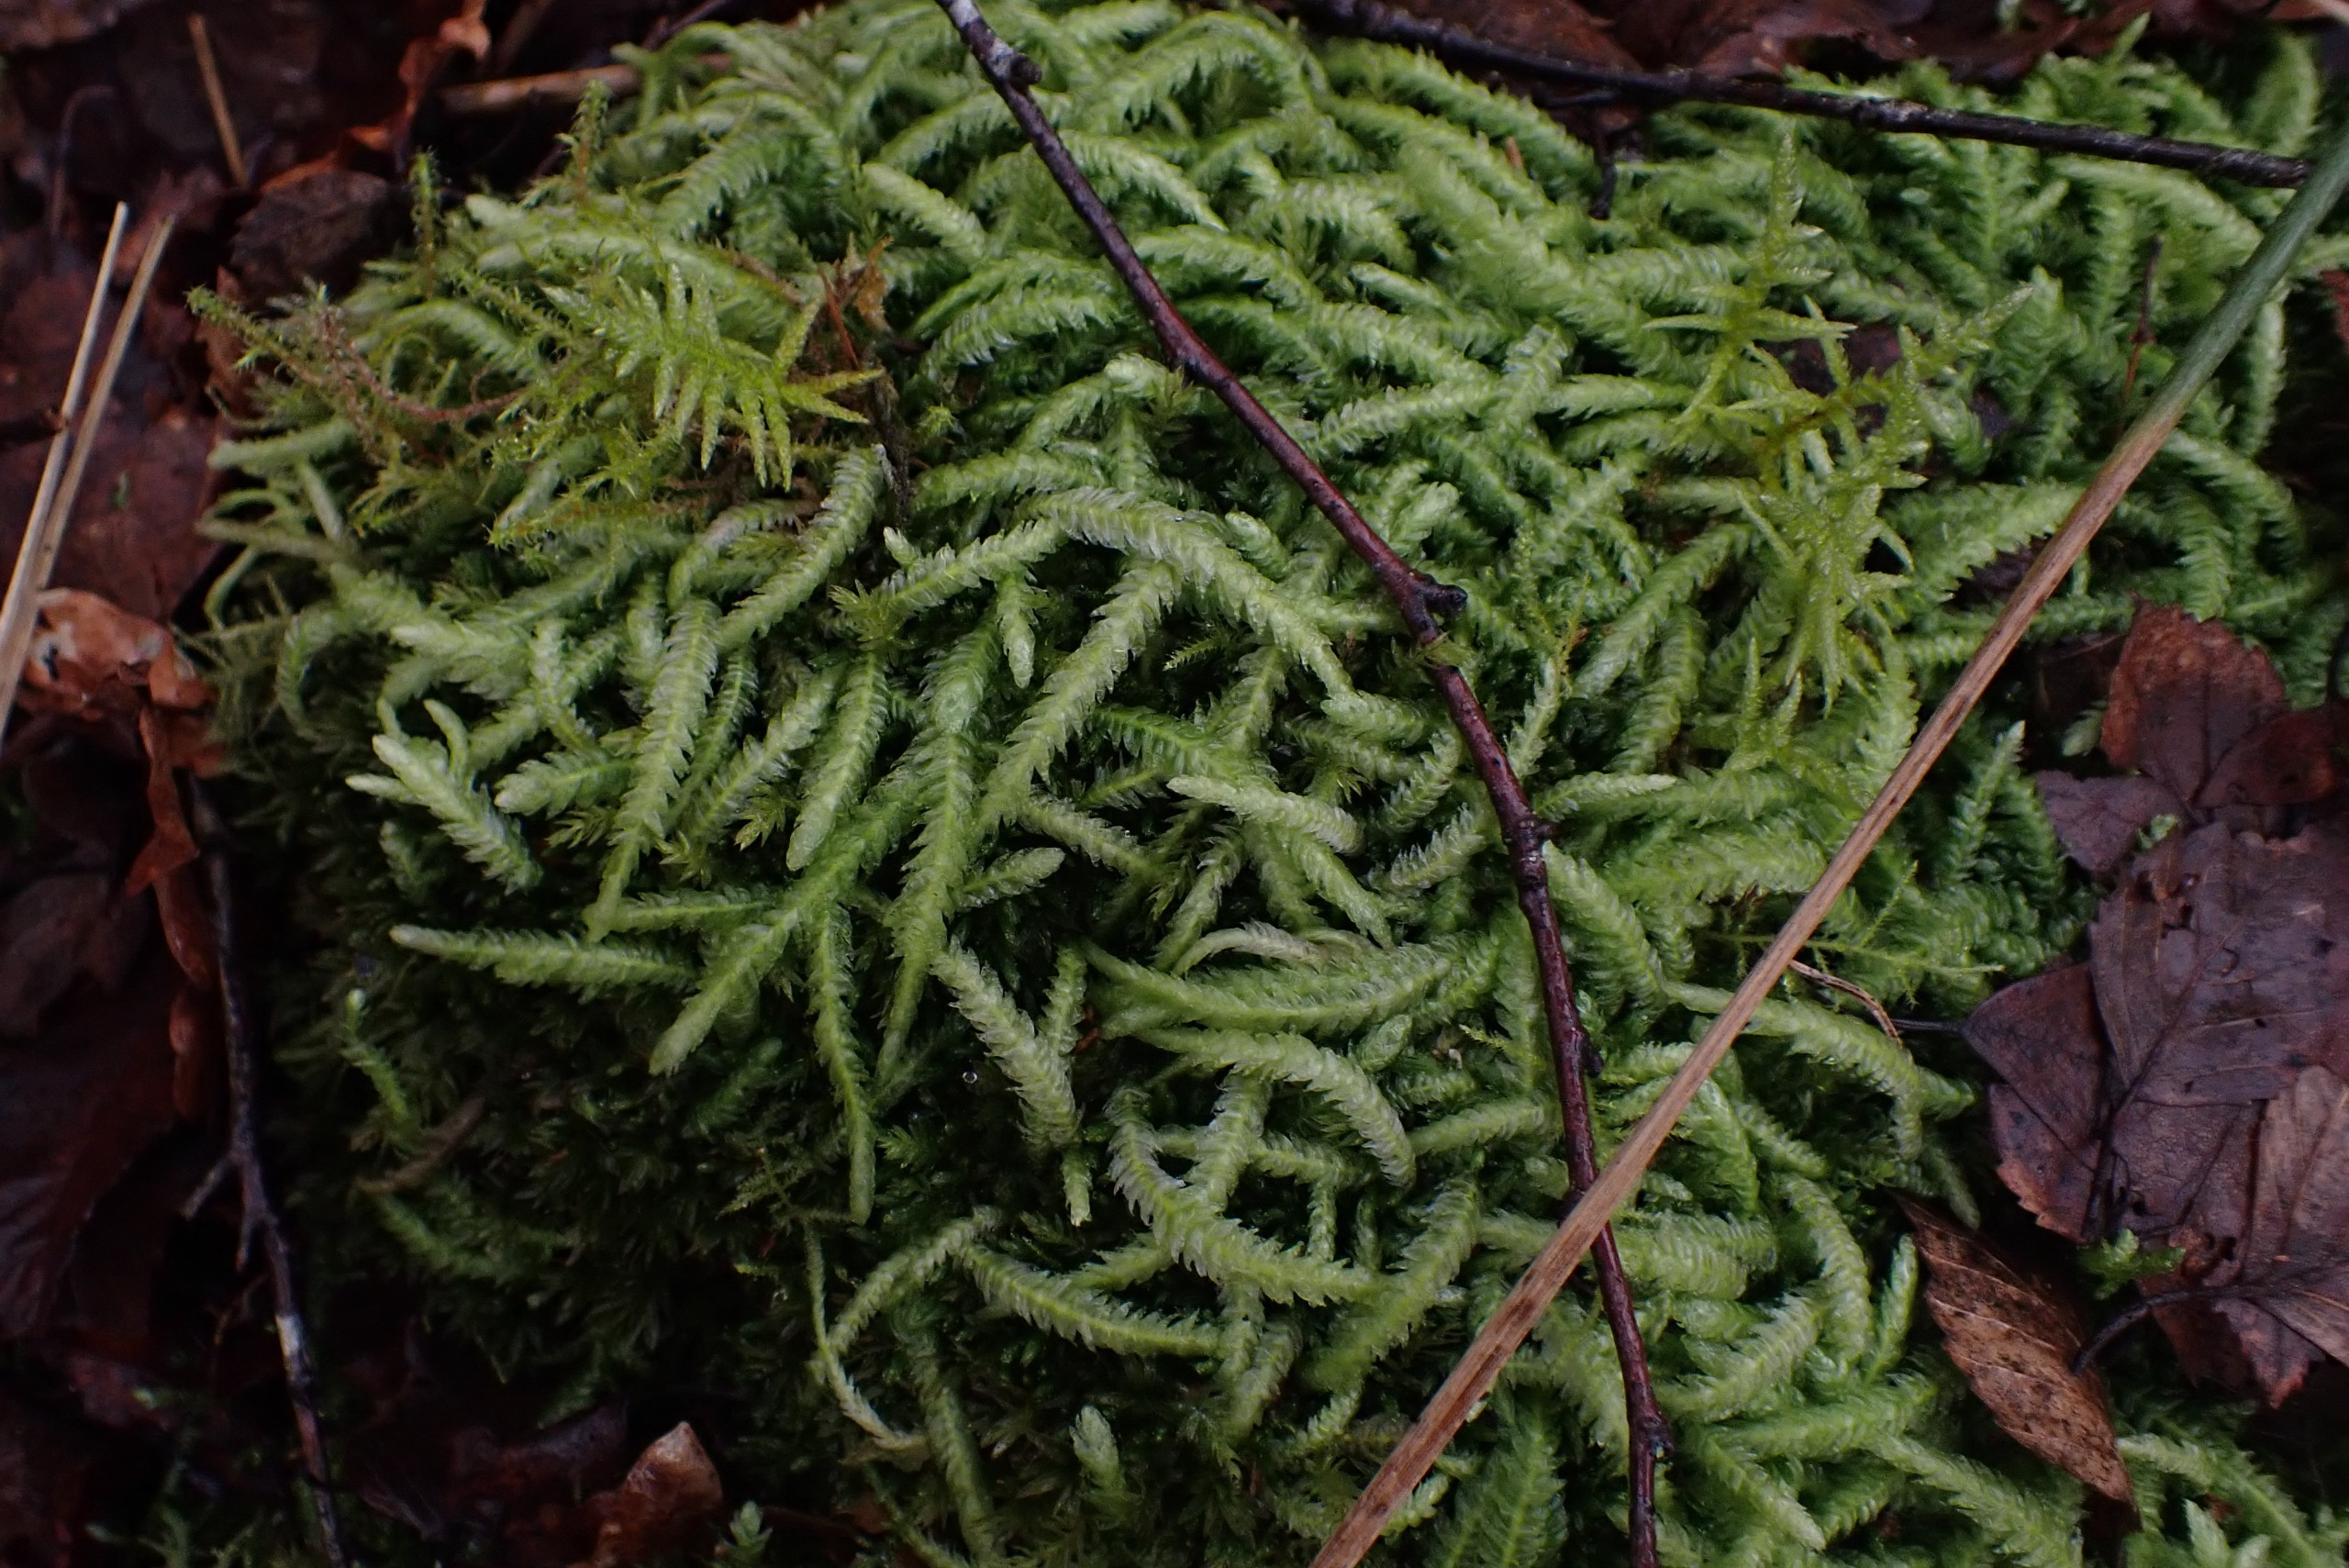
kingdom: Plantae
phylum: Bryophyta
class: Bryopsida
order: Hypnales
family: Plagiotheciaceae
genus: Plagiothecium
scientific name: Plagiothecium undulatum
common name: Bølget tæppemos
